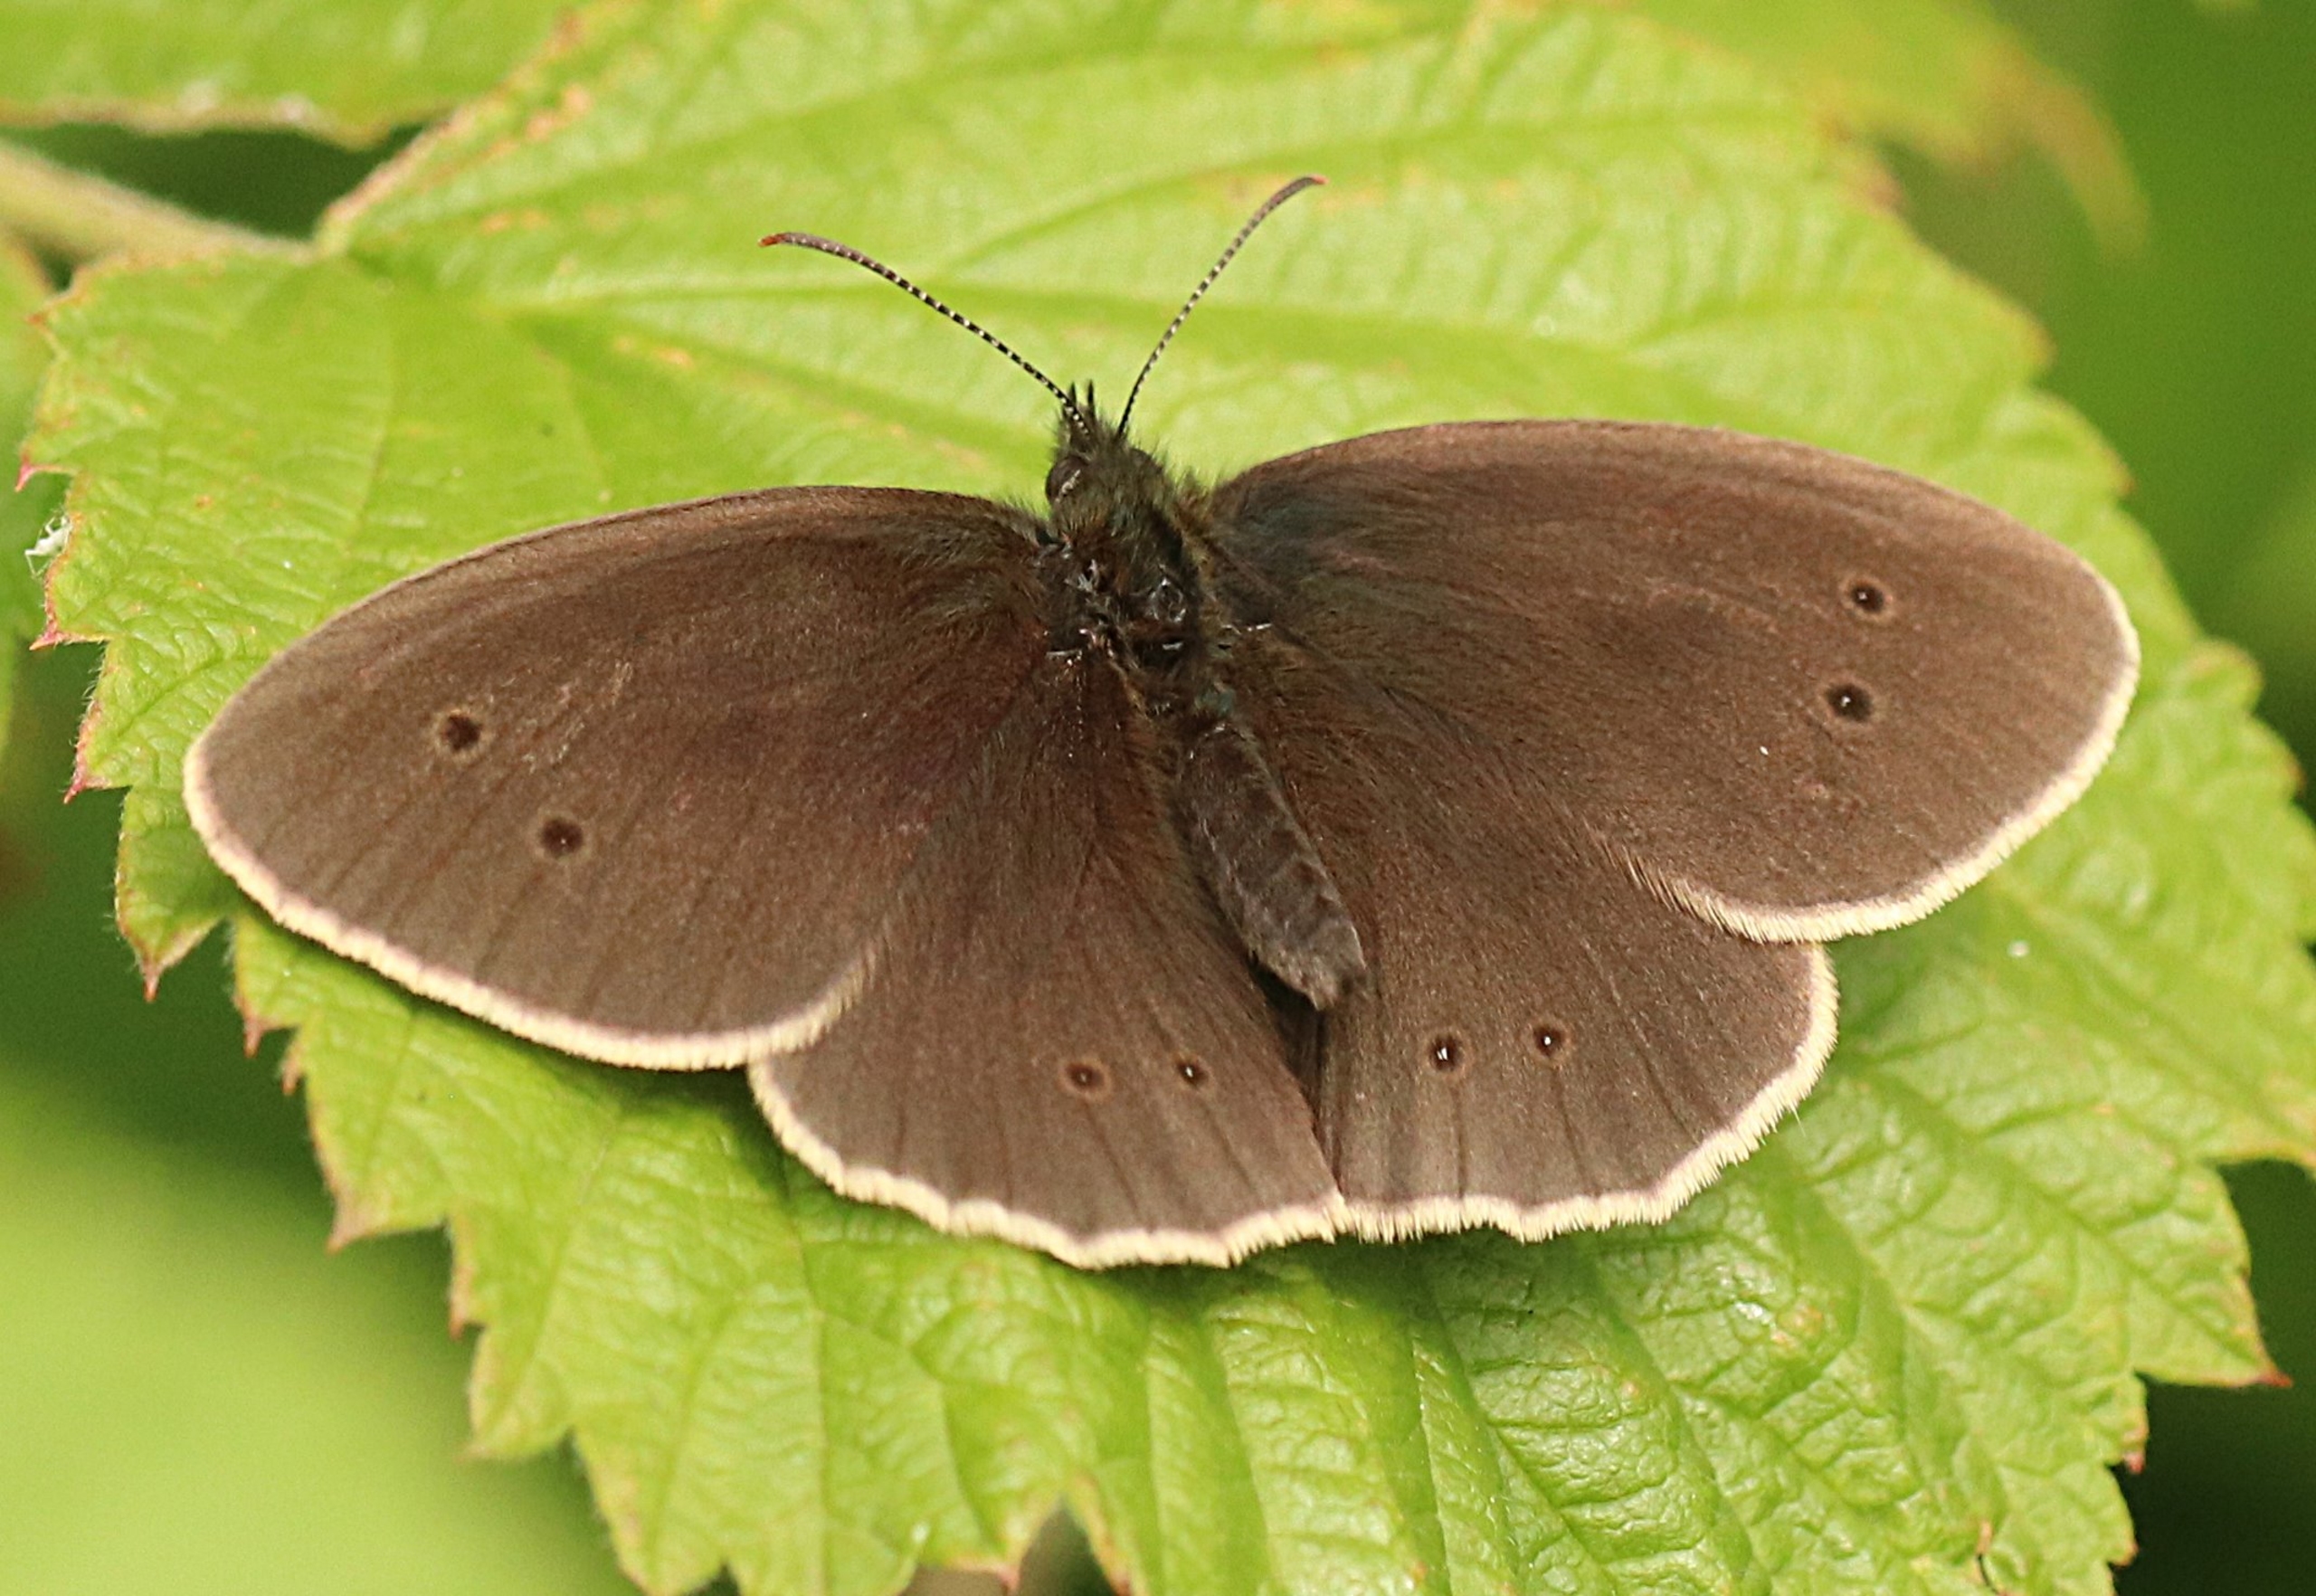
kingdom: Animalia
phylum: Arthropoda
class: Insecta
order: Lepidoptera
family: Nymphalidae
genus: Aphantopus
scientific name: Aphantopus hyperantus
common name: Engrandøje
